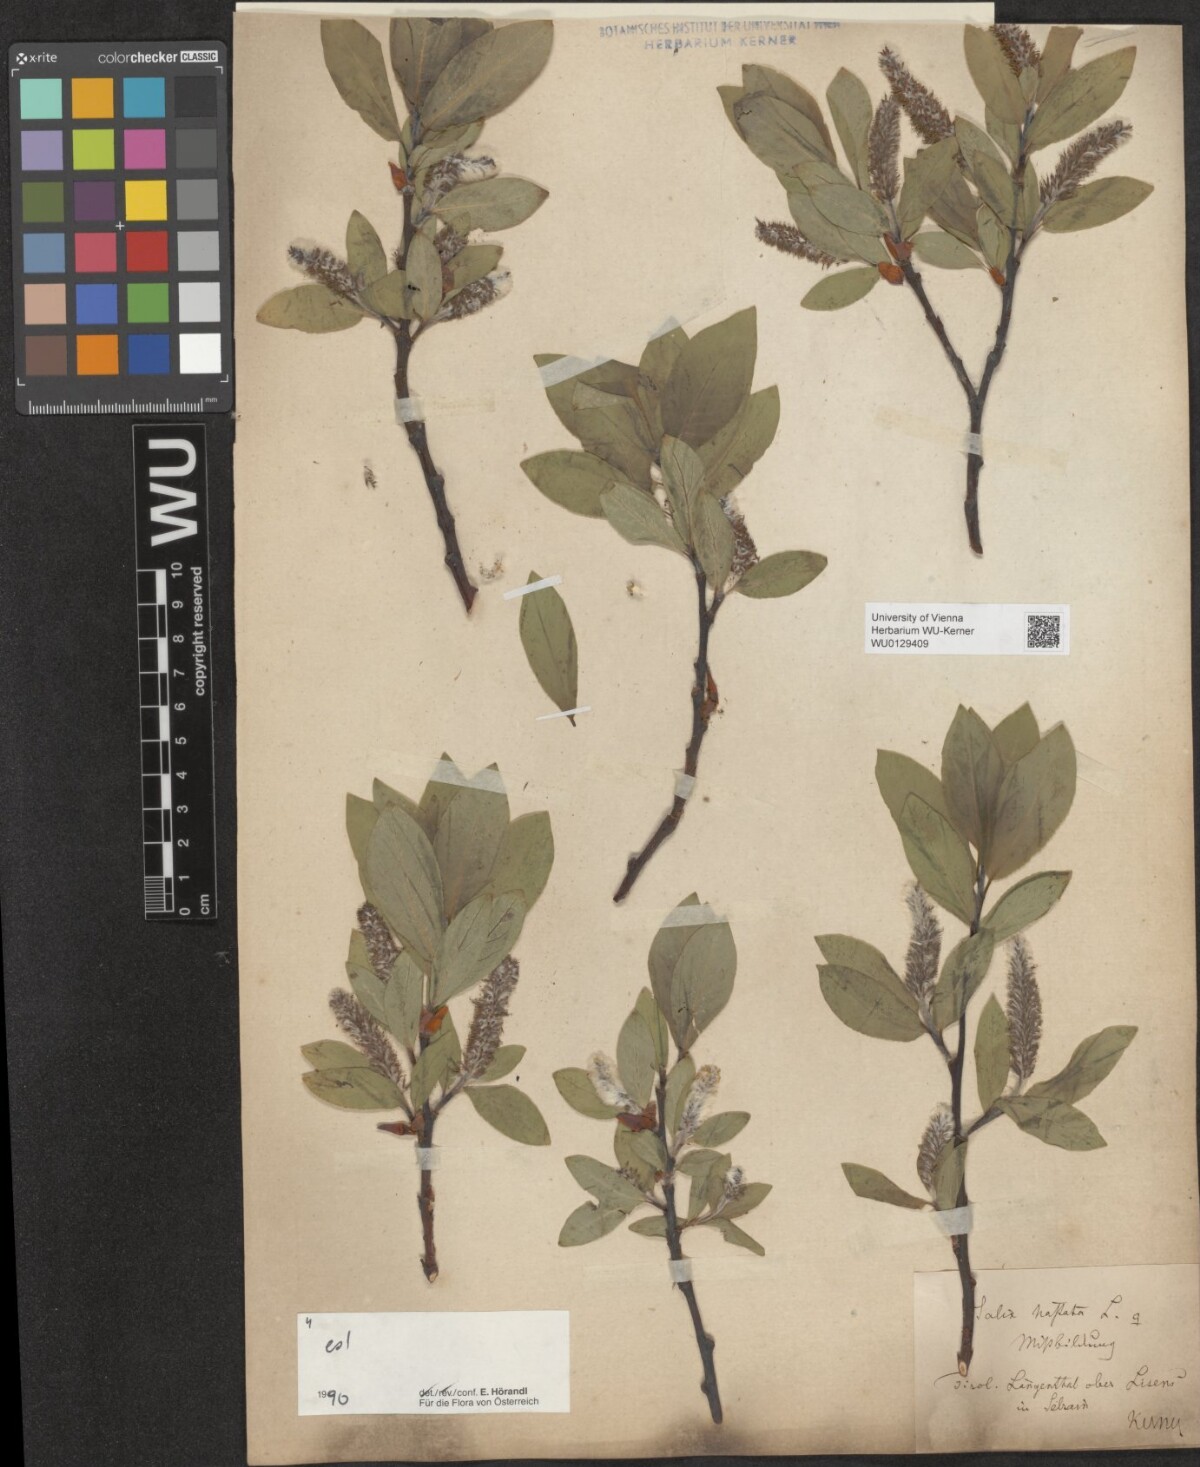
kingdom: Plantae
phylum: Tracheophyta
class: Magnoliopsida
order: Malpighiales
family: Salicaceae
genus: Salix
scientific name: Salix hastata
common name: Halberd willow
